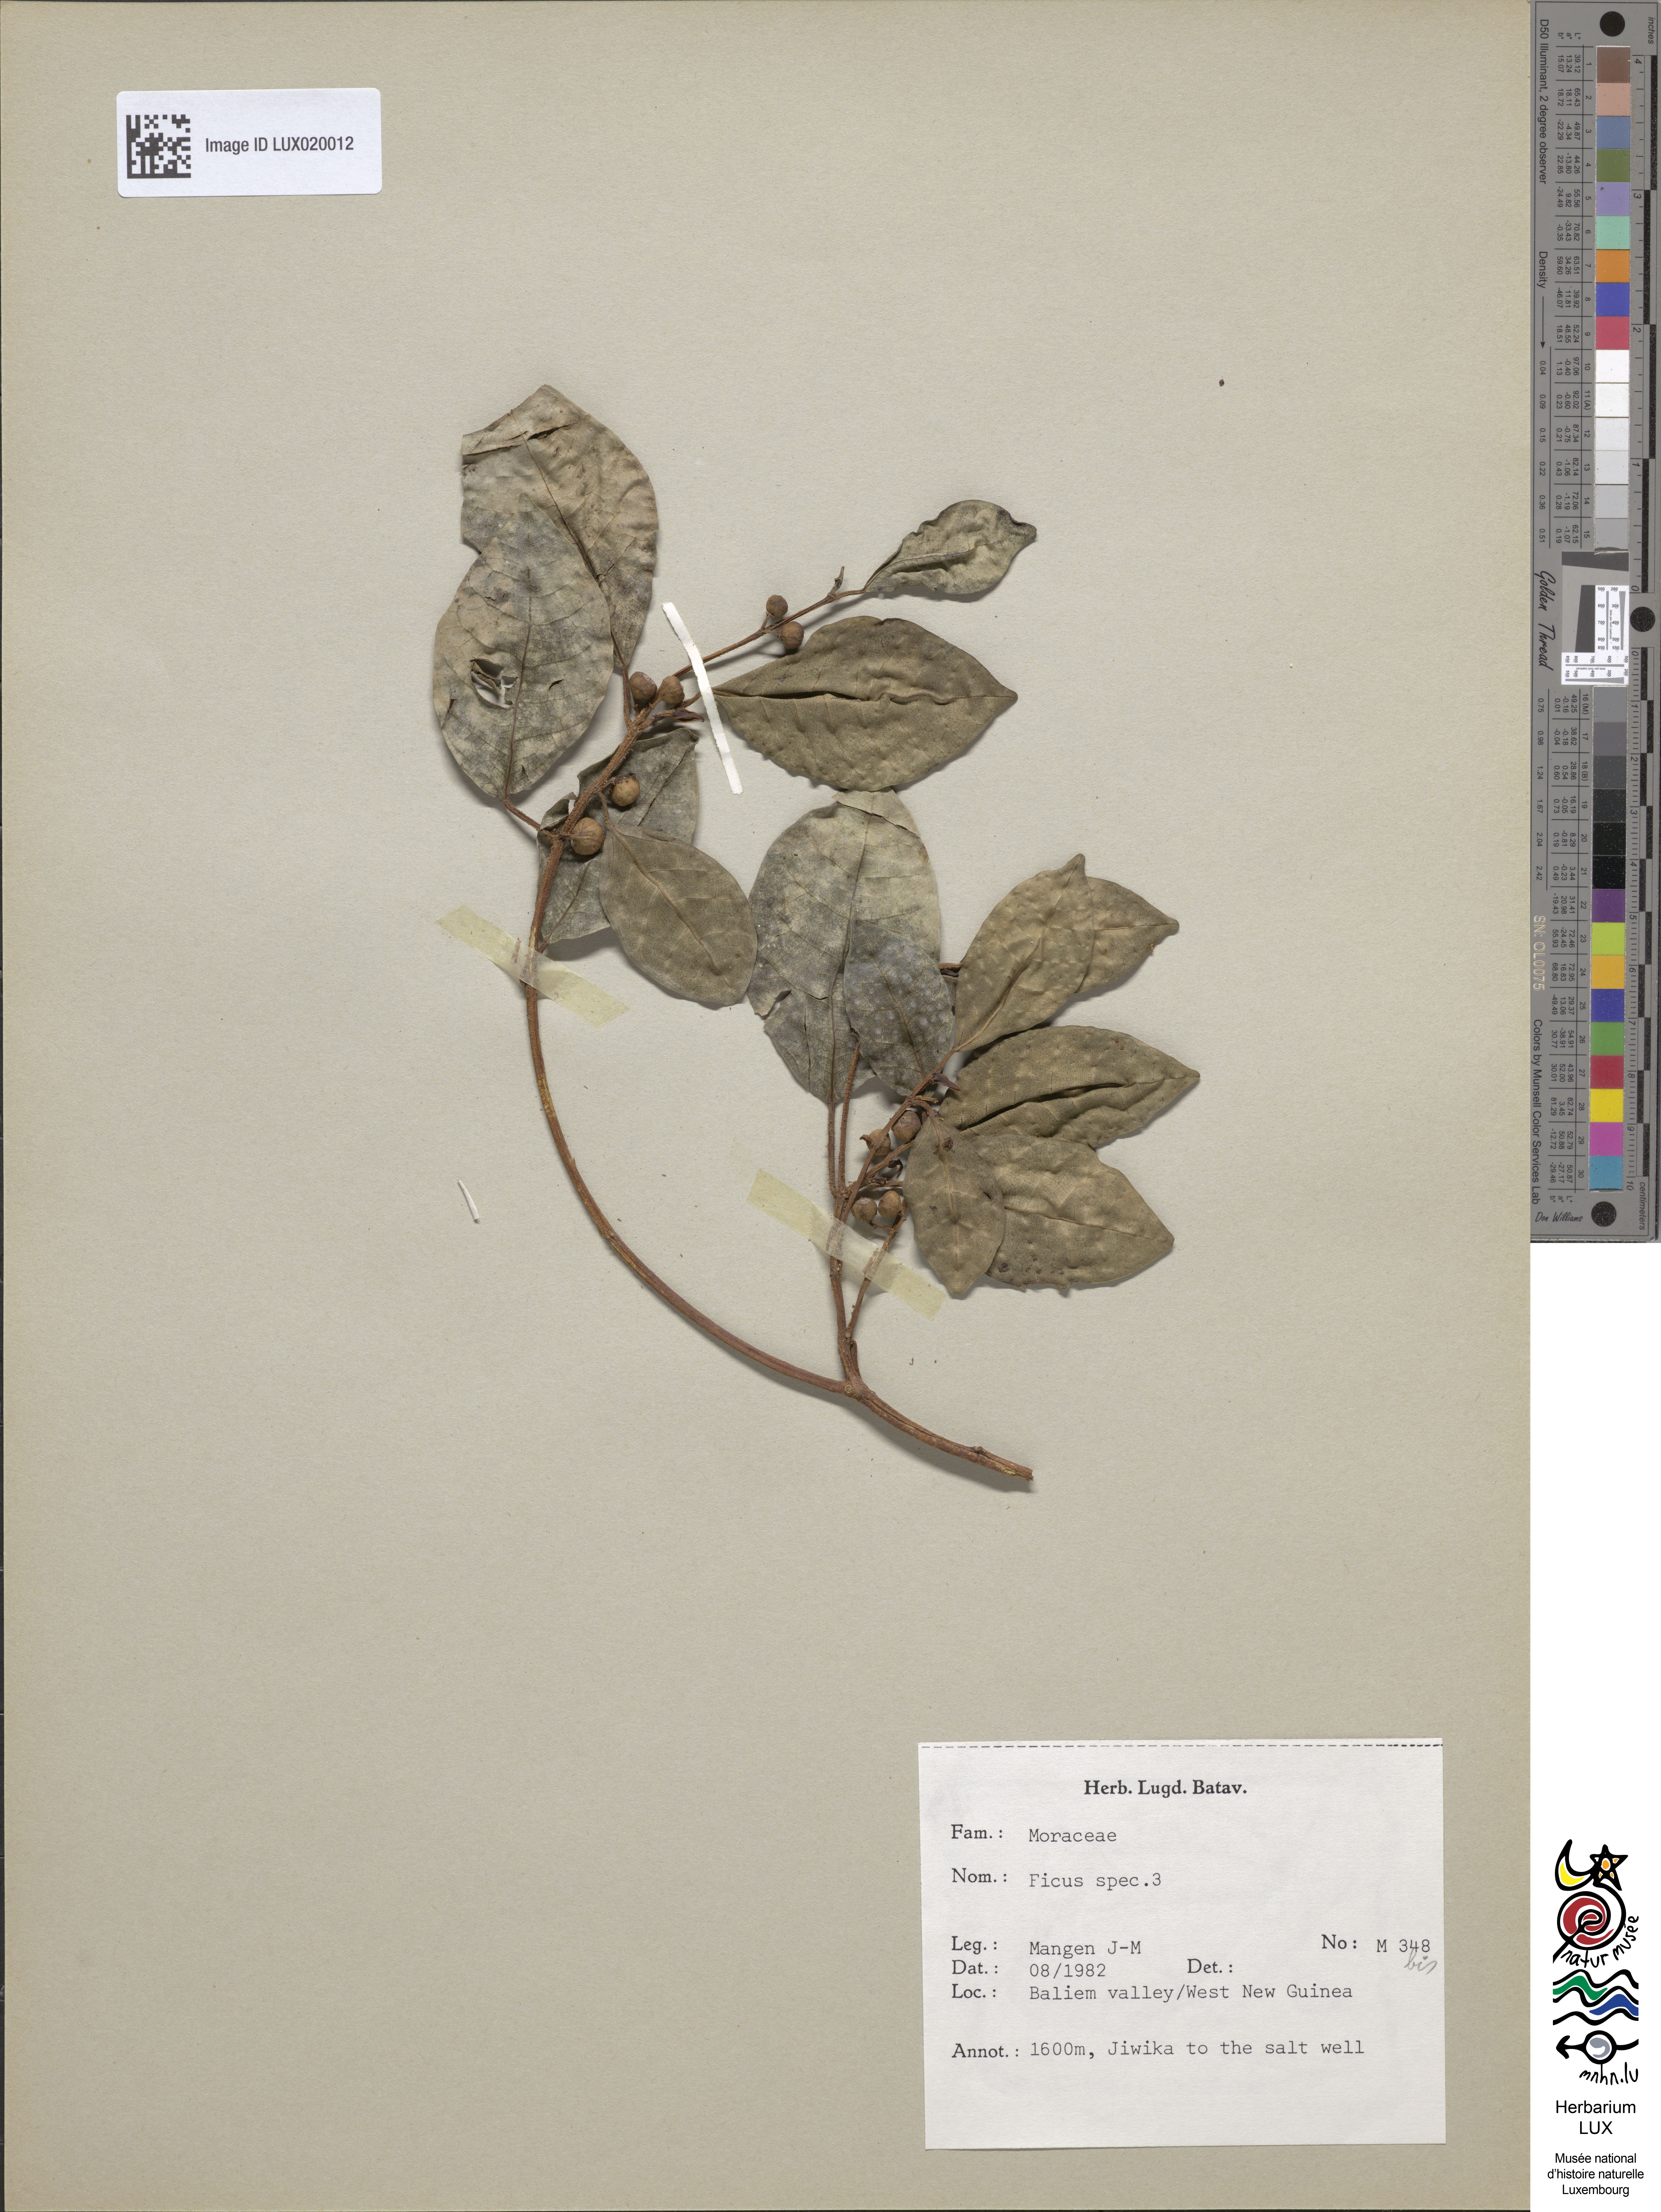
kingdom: Plantae
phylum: Tracheophyta
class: Magnoliopsida
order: Rosales
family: Moraceae
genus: Ficus
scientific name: Ficus
